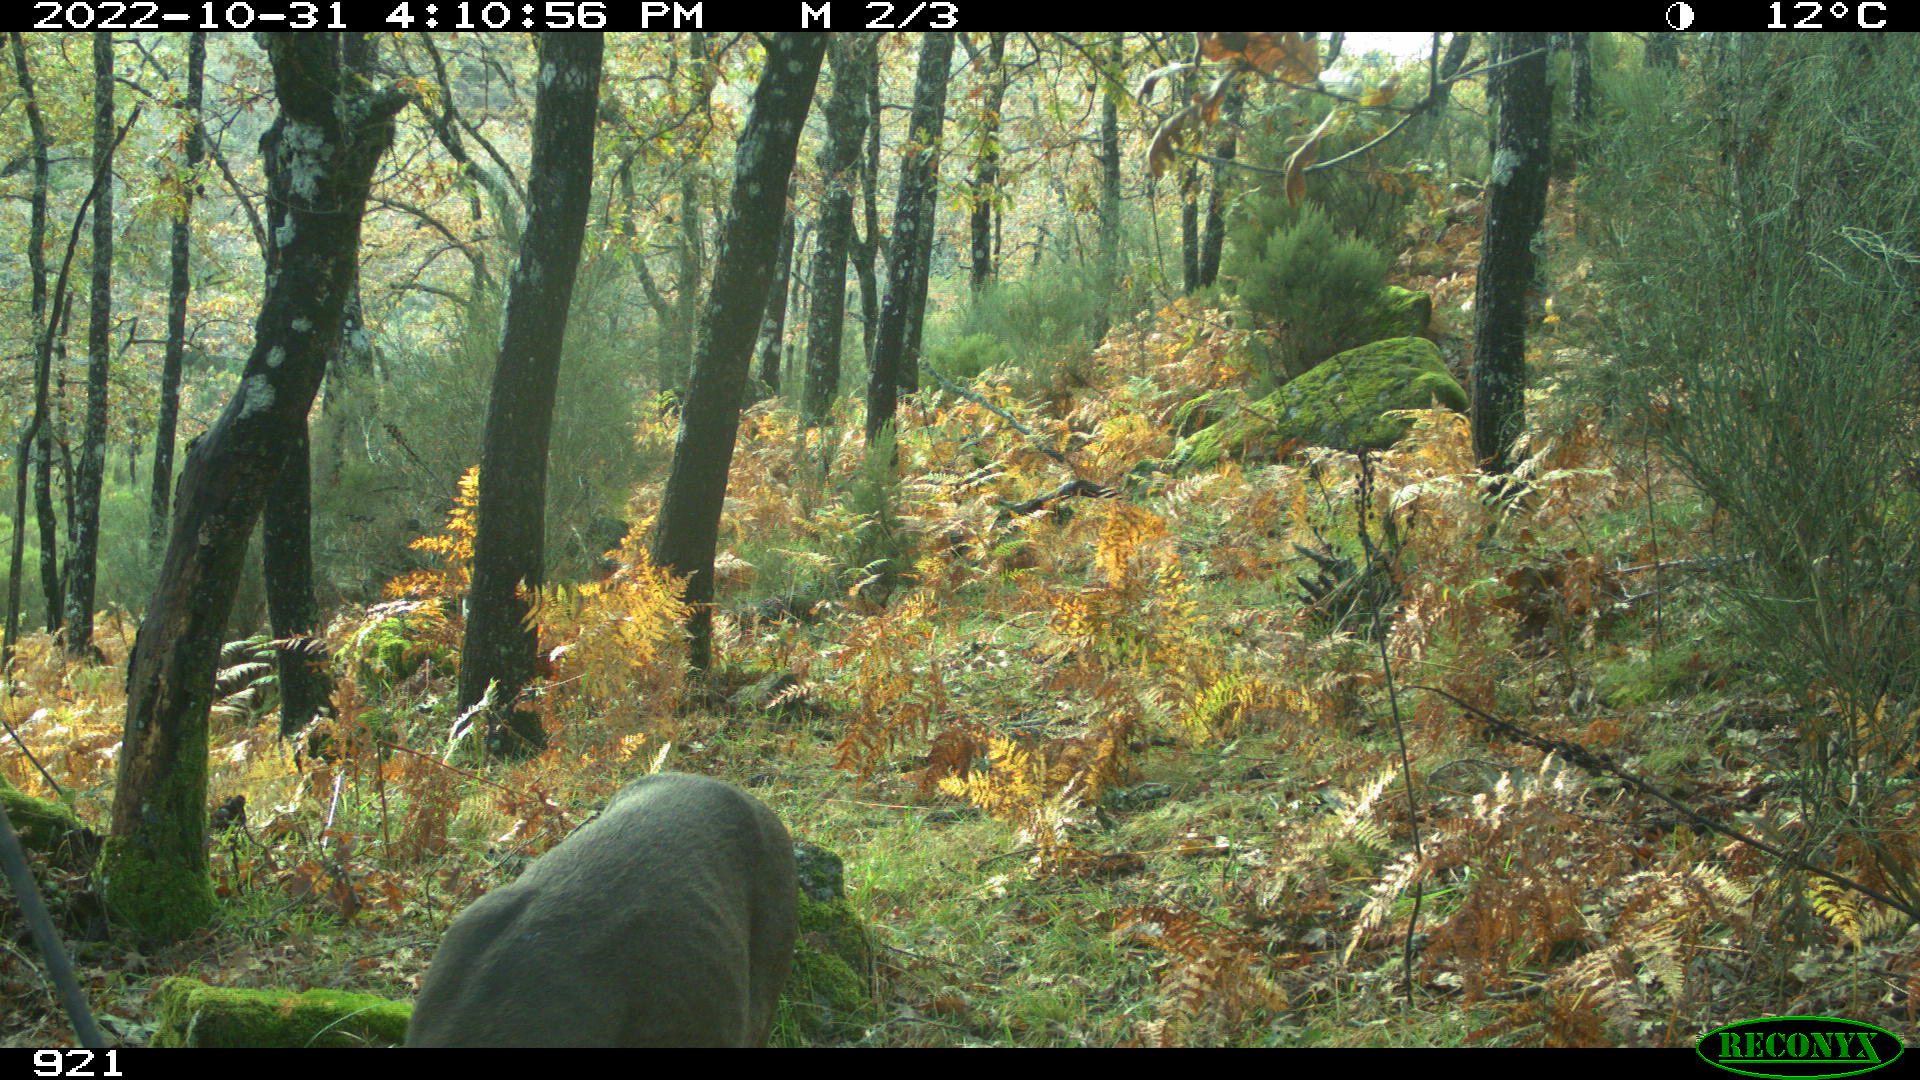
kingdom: Animalia
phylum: Chordata
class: Mammalia
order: Artiodactyla
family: Cervidae
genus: Capreolus
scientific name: Capreolus capreolus
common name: Western roe deer
